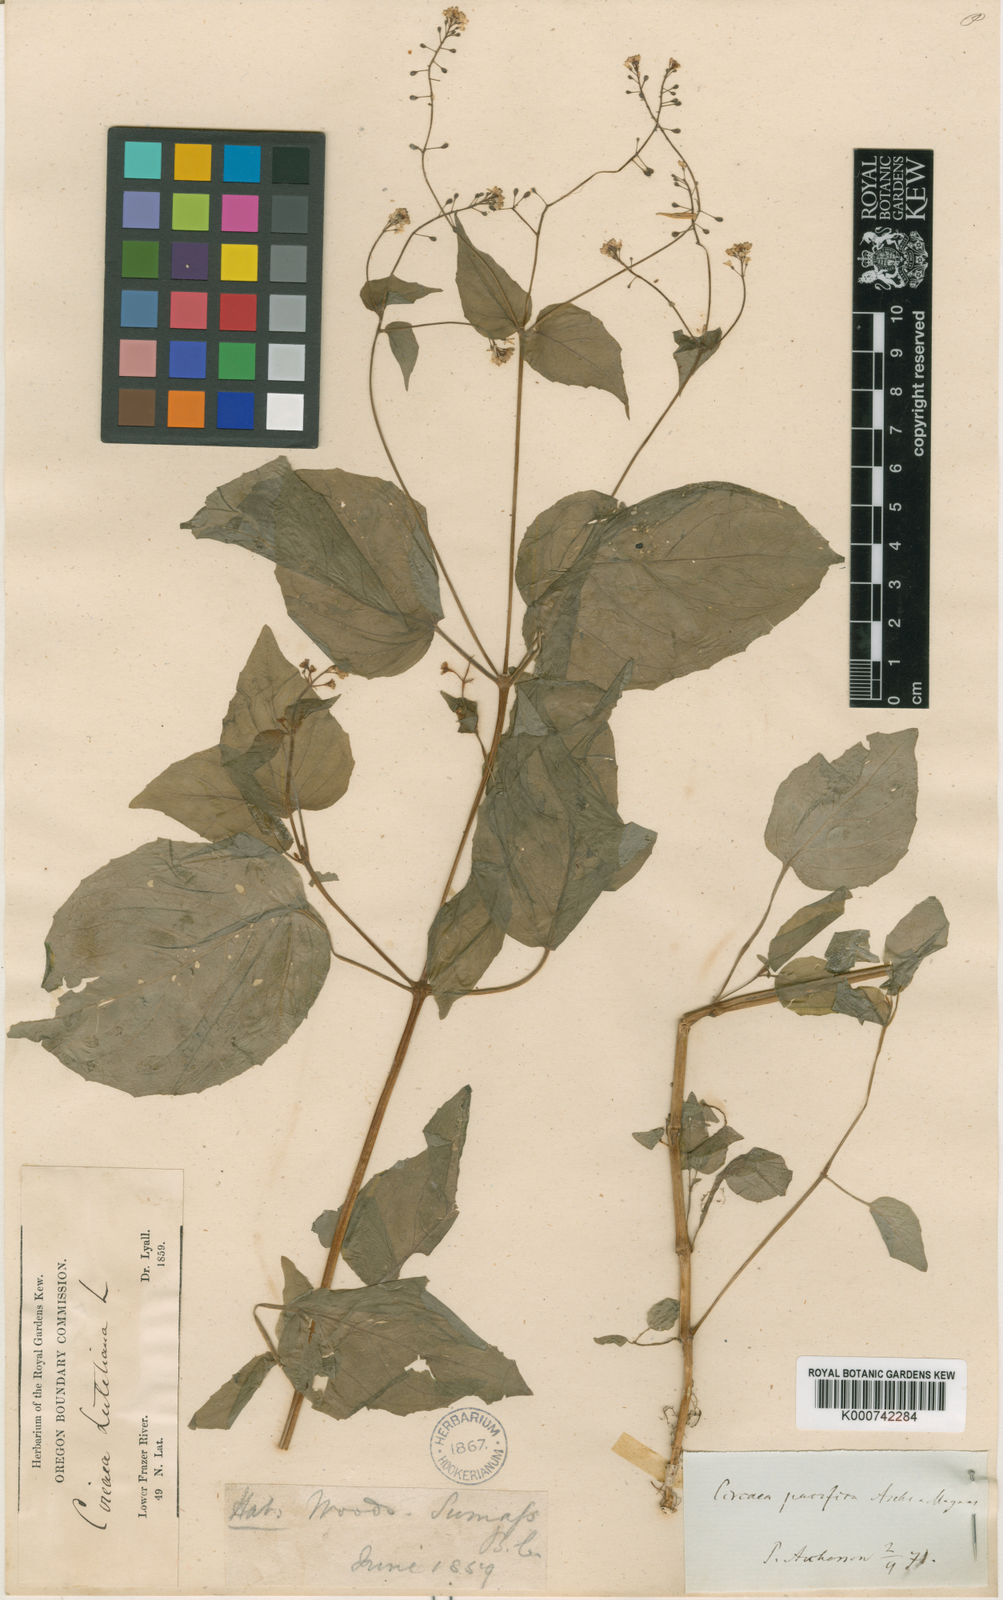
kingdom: Plantae
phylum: Tracheophyta
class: Magnoliopsida
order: Myrtales
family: Onagraceae
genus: Circaea
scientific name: Circaea alpina
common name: Alpine enchanter's-nightshade
